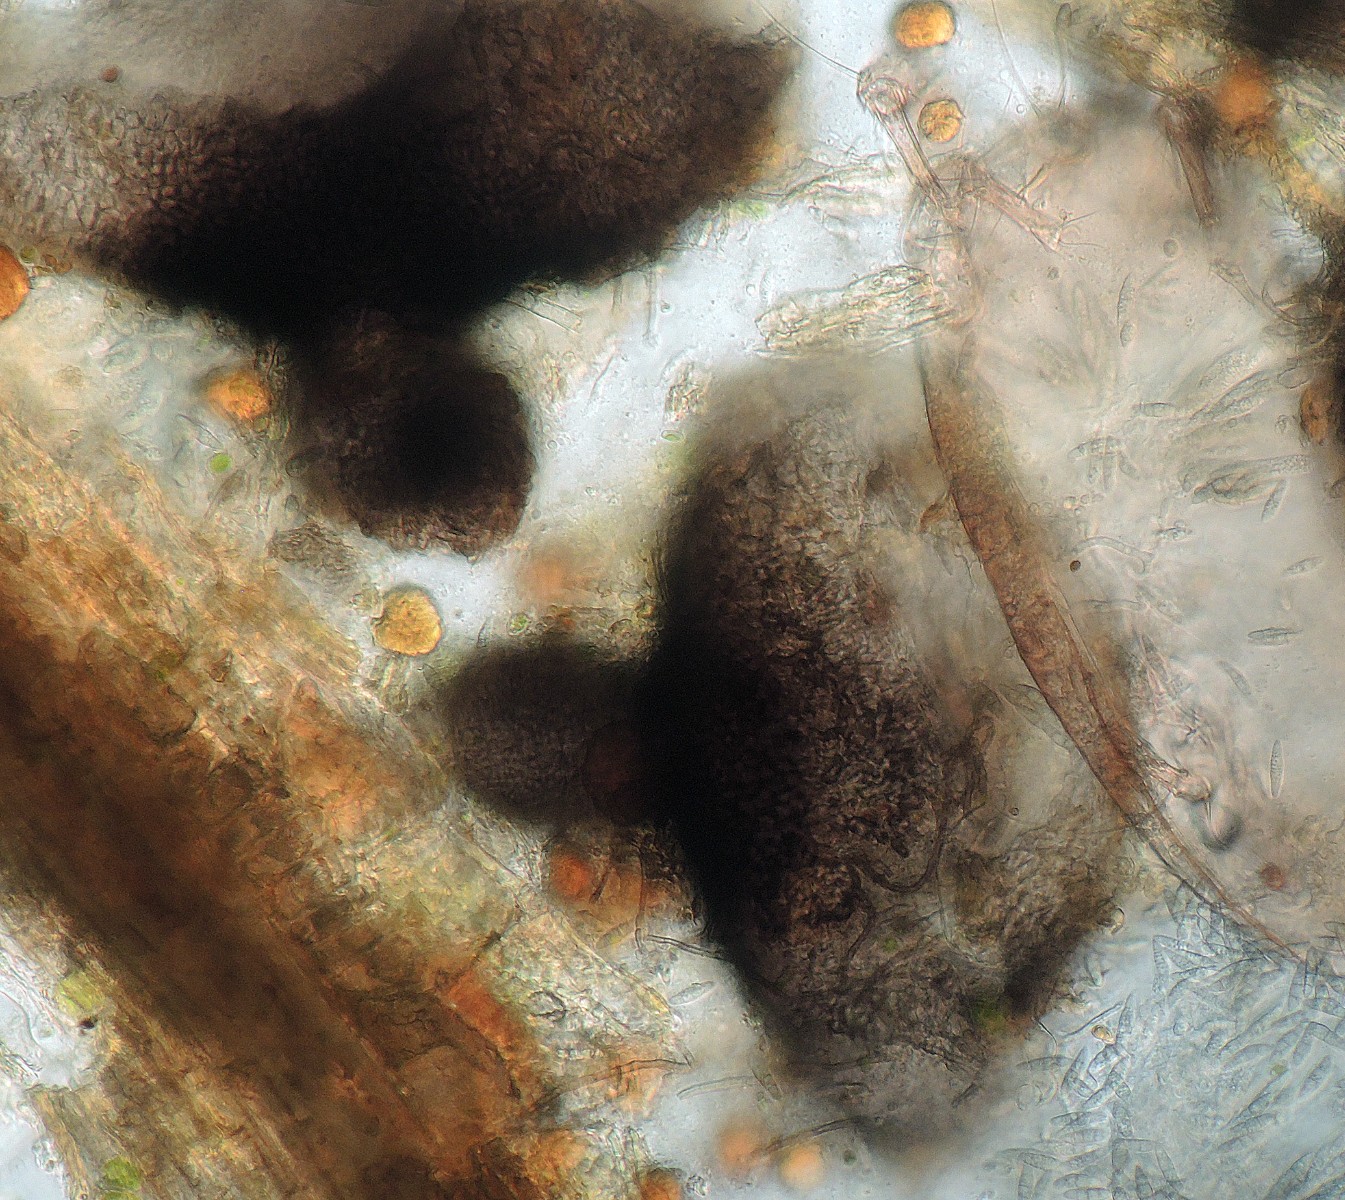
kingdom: Plantae
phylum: Bryophyta
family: Dothideomycetes
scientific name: Dothideomycetes
